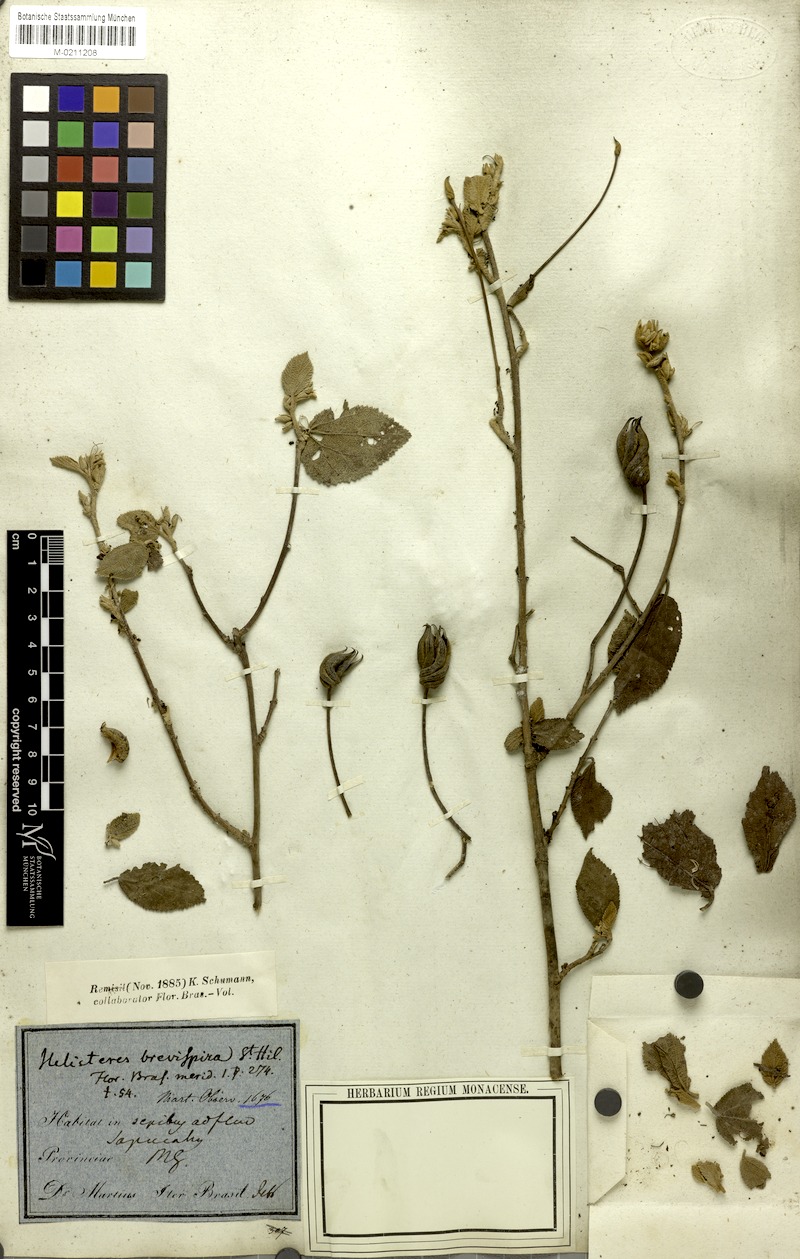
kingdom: Plantae
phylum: Tracheophyta
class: Magnoliopsida
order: Malvales
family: Malvaceae
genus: Helicteres
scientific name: Helicteres brevispira
